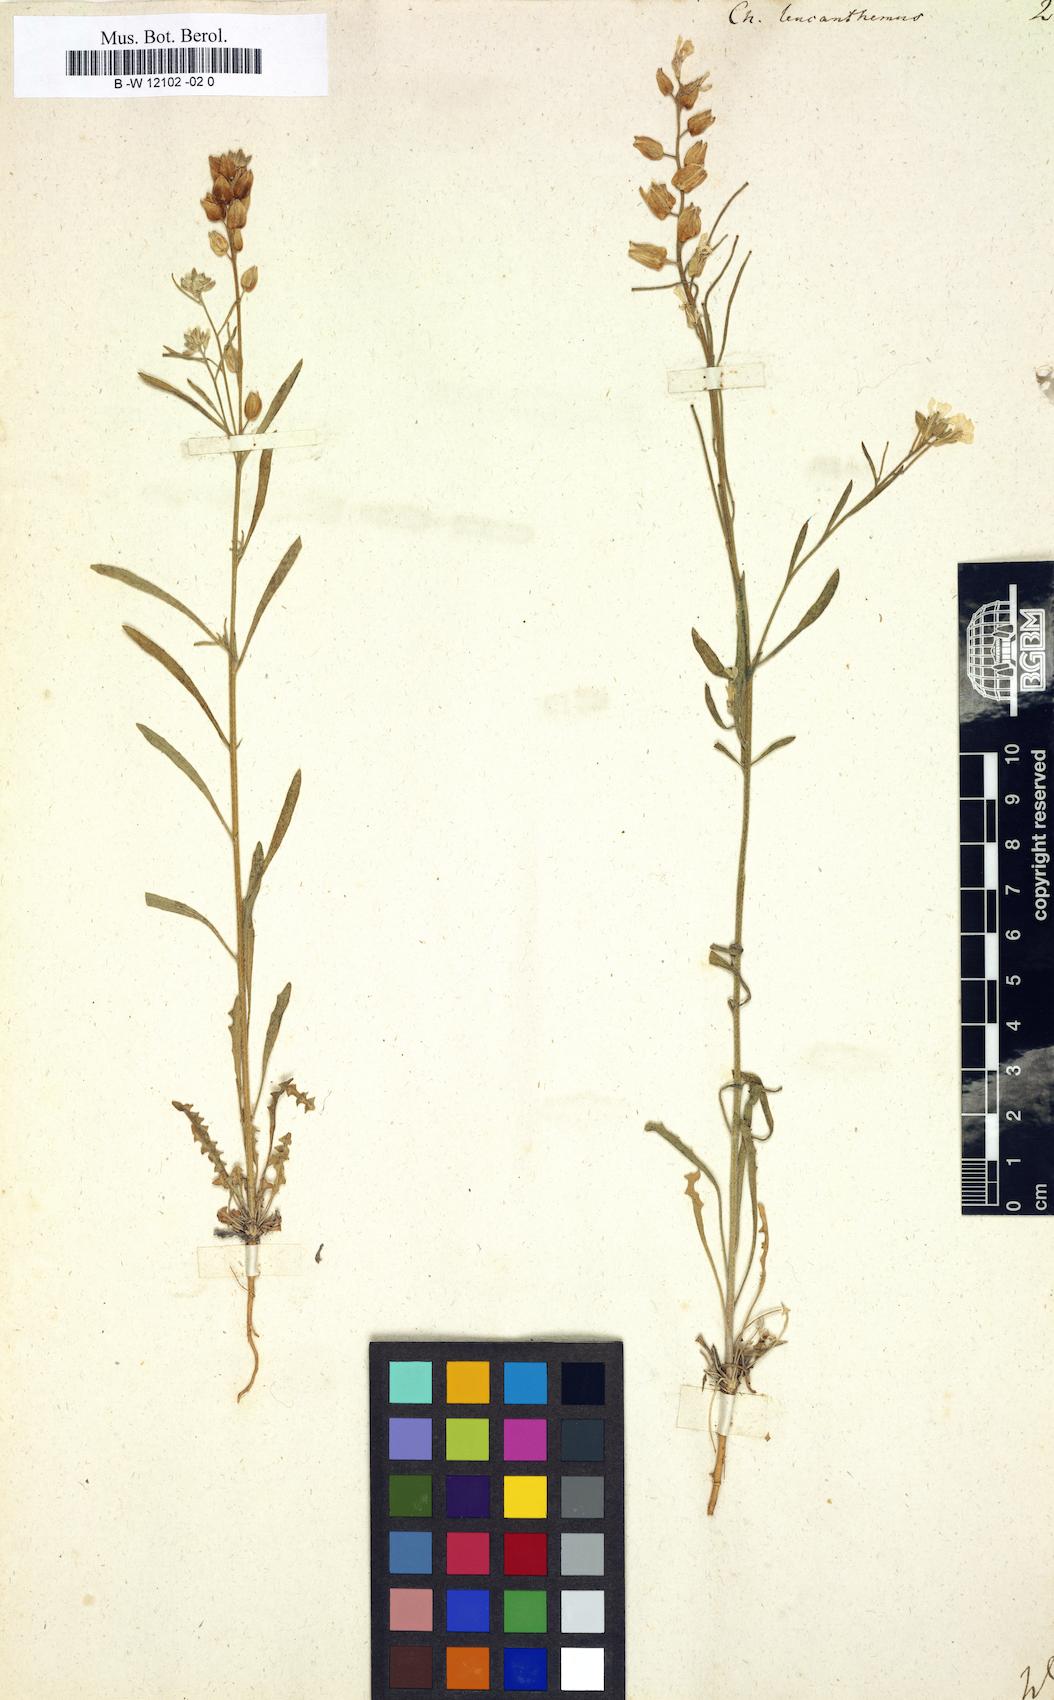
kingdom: Plantae
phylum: Tracheophyta
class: Magnoliopsida
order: Brassicales
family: Brassicaceae
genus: Erysimum
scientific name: Erysimum leucanthemum
